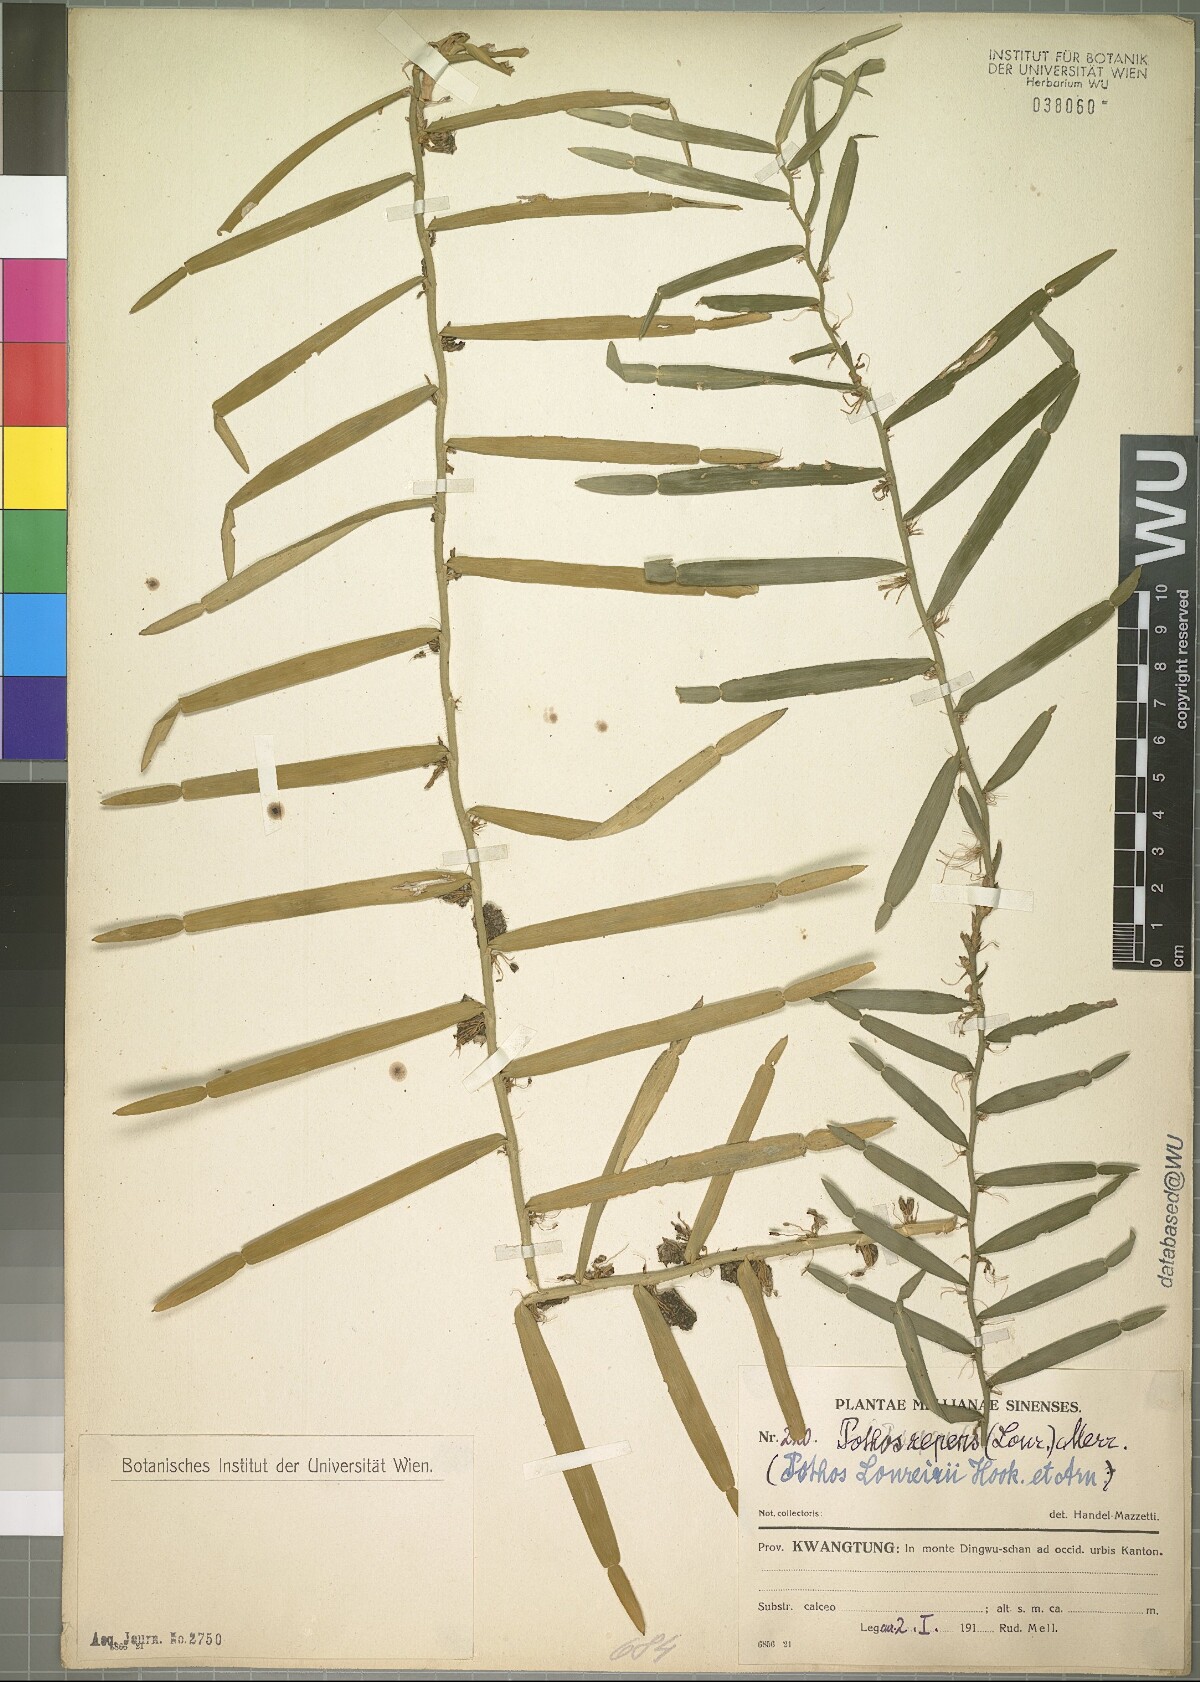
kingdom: Plantae
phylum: Tracheophyta
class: Liliopsida
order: Alismatales
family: Araceae
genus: Pothos
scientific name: Pothos repens
